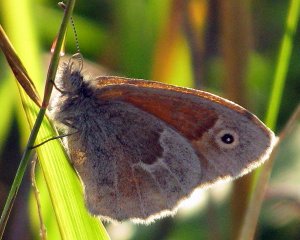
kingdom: Animalia
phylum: Arthropoda
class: Insecta
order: Lepidoptera
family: Nymphalidae
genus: Coenonympha
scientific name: Coenonympha tullia
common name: Large Heath
